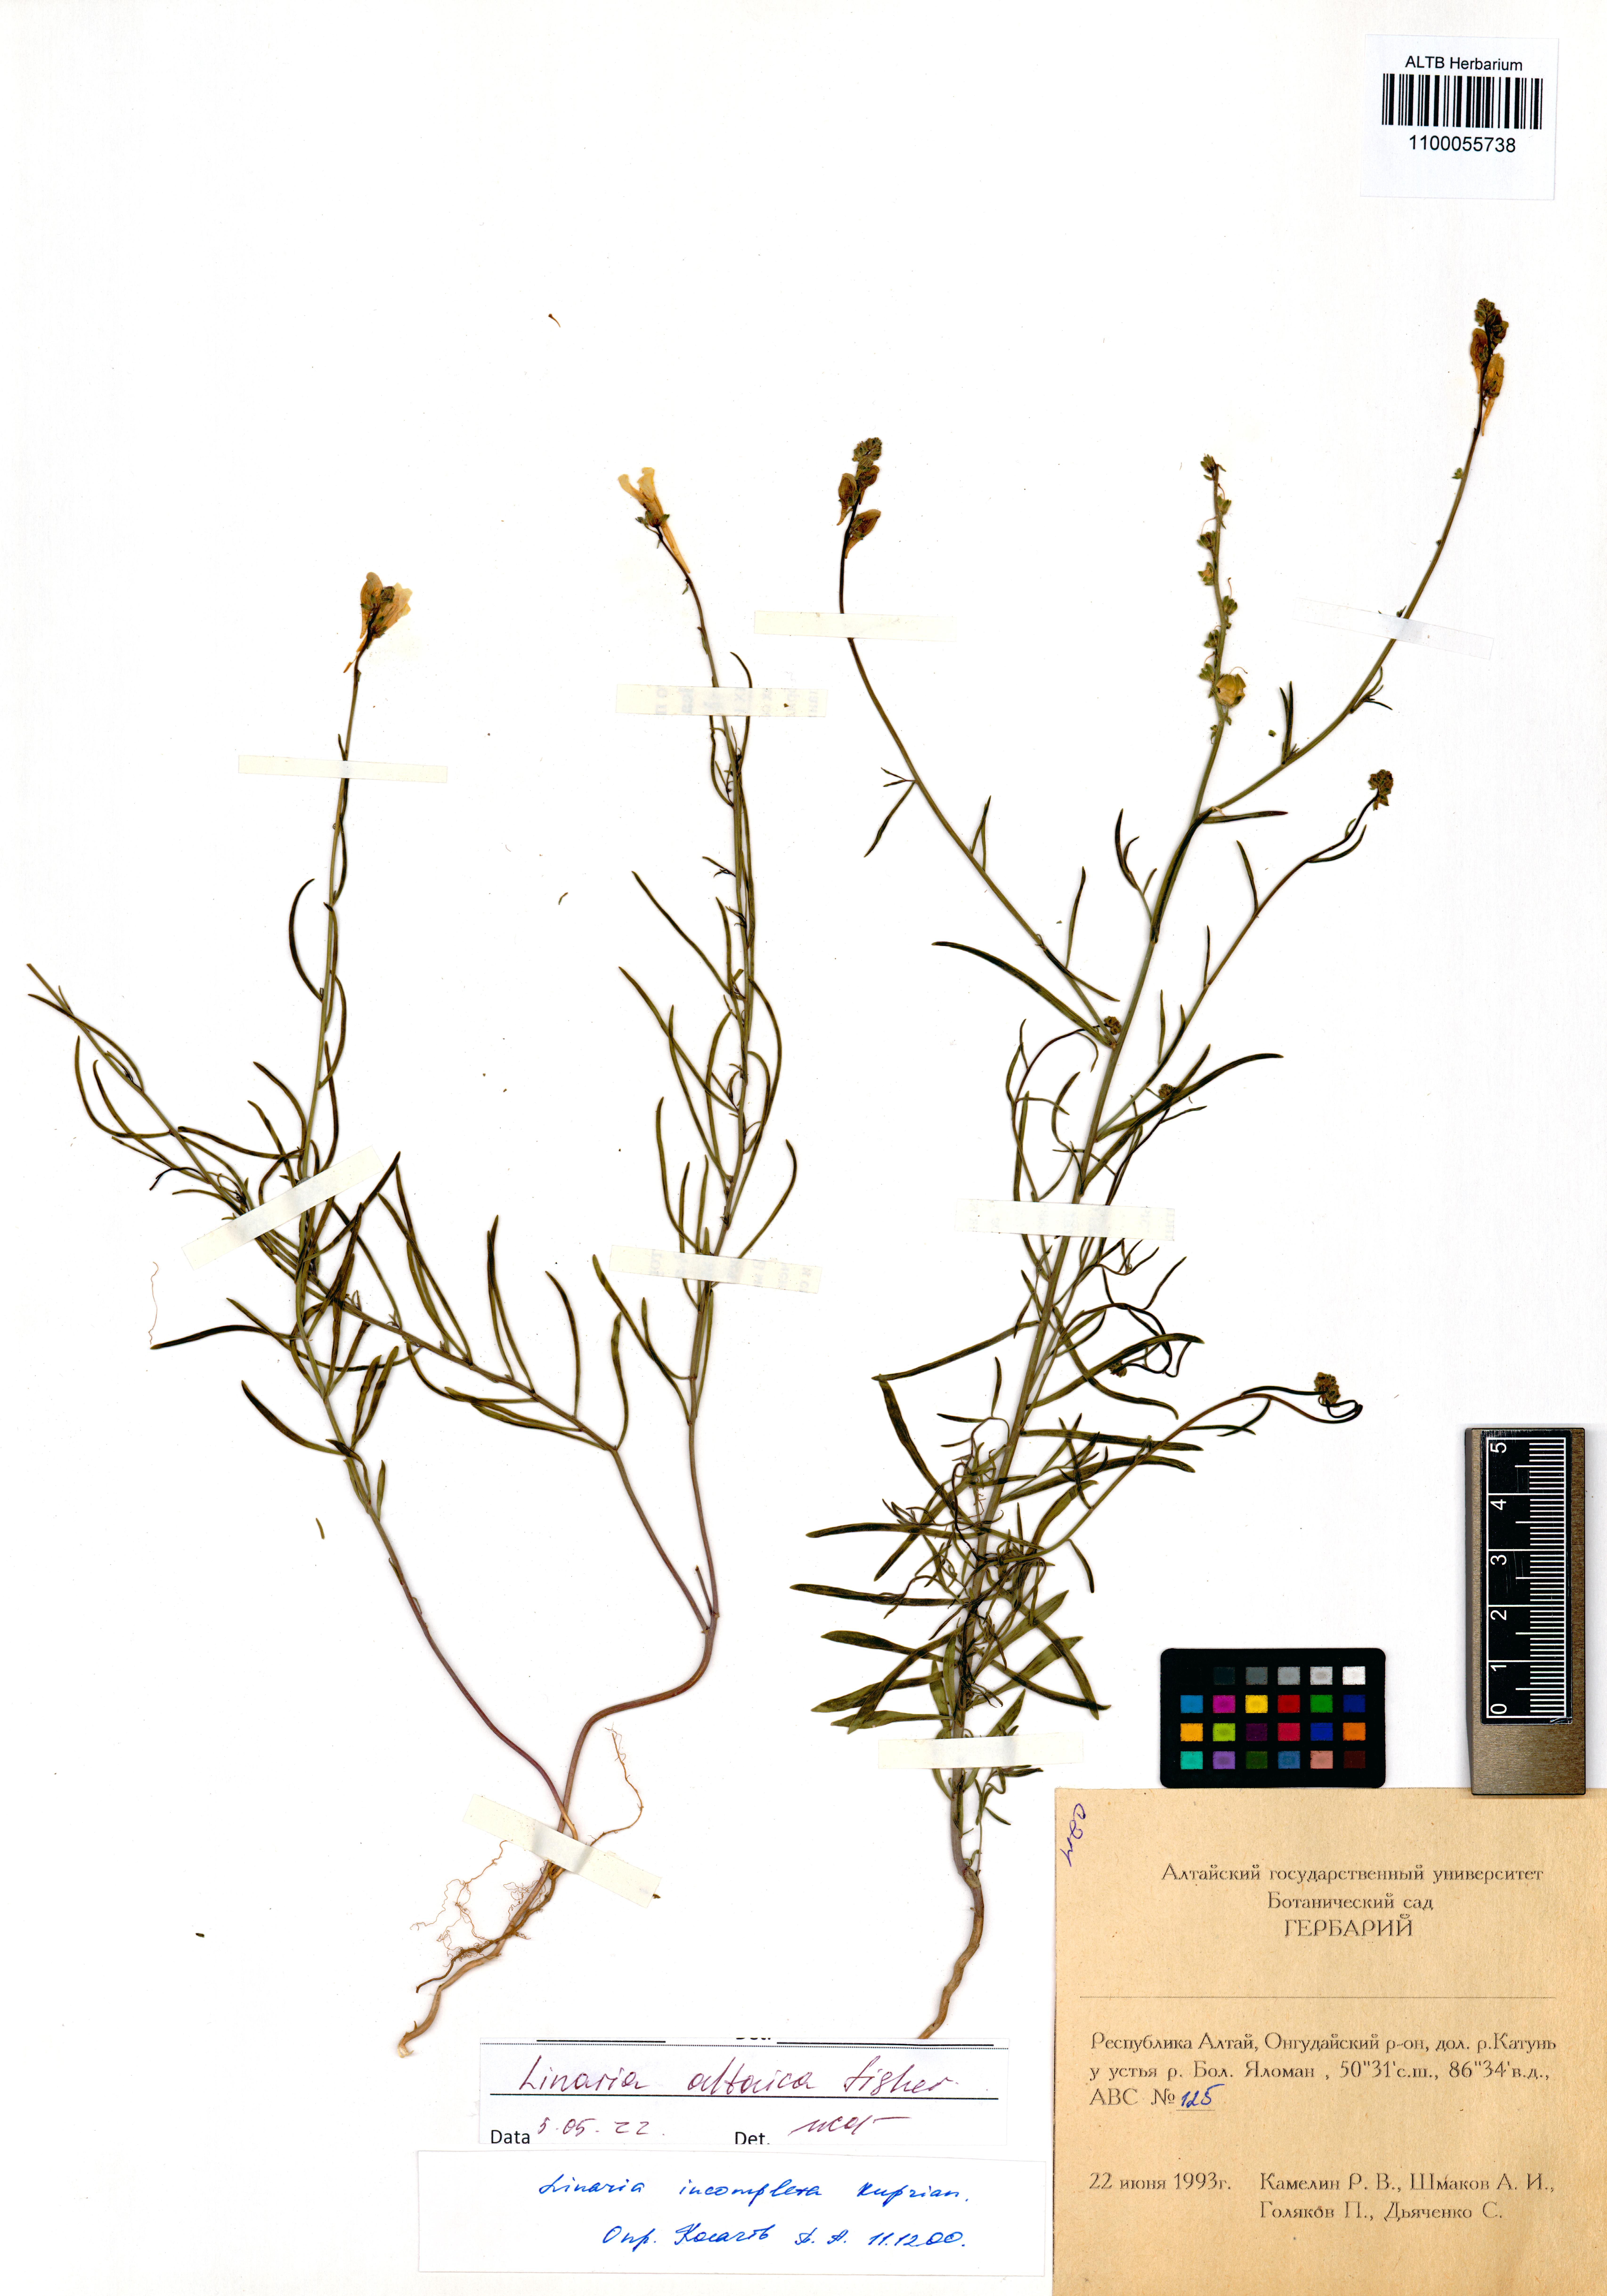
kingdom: Plantae
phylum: Tracheophyta
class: Magnoliopsida
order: Lamiales
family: Plantaginaceae
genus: Linaria
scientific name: Linaria altaica
